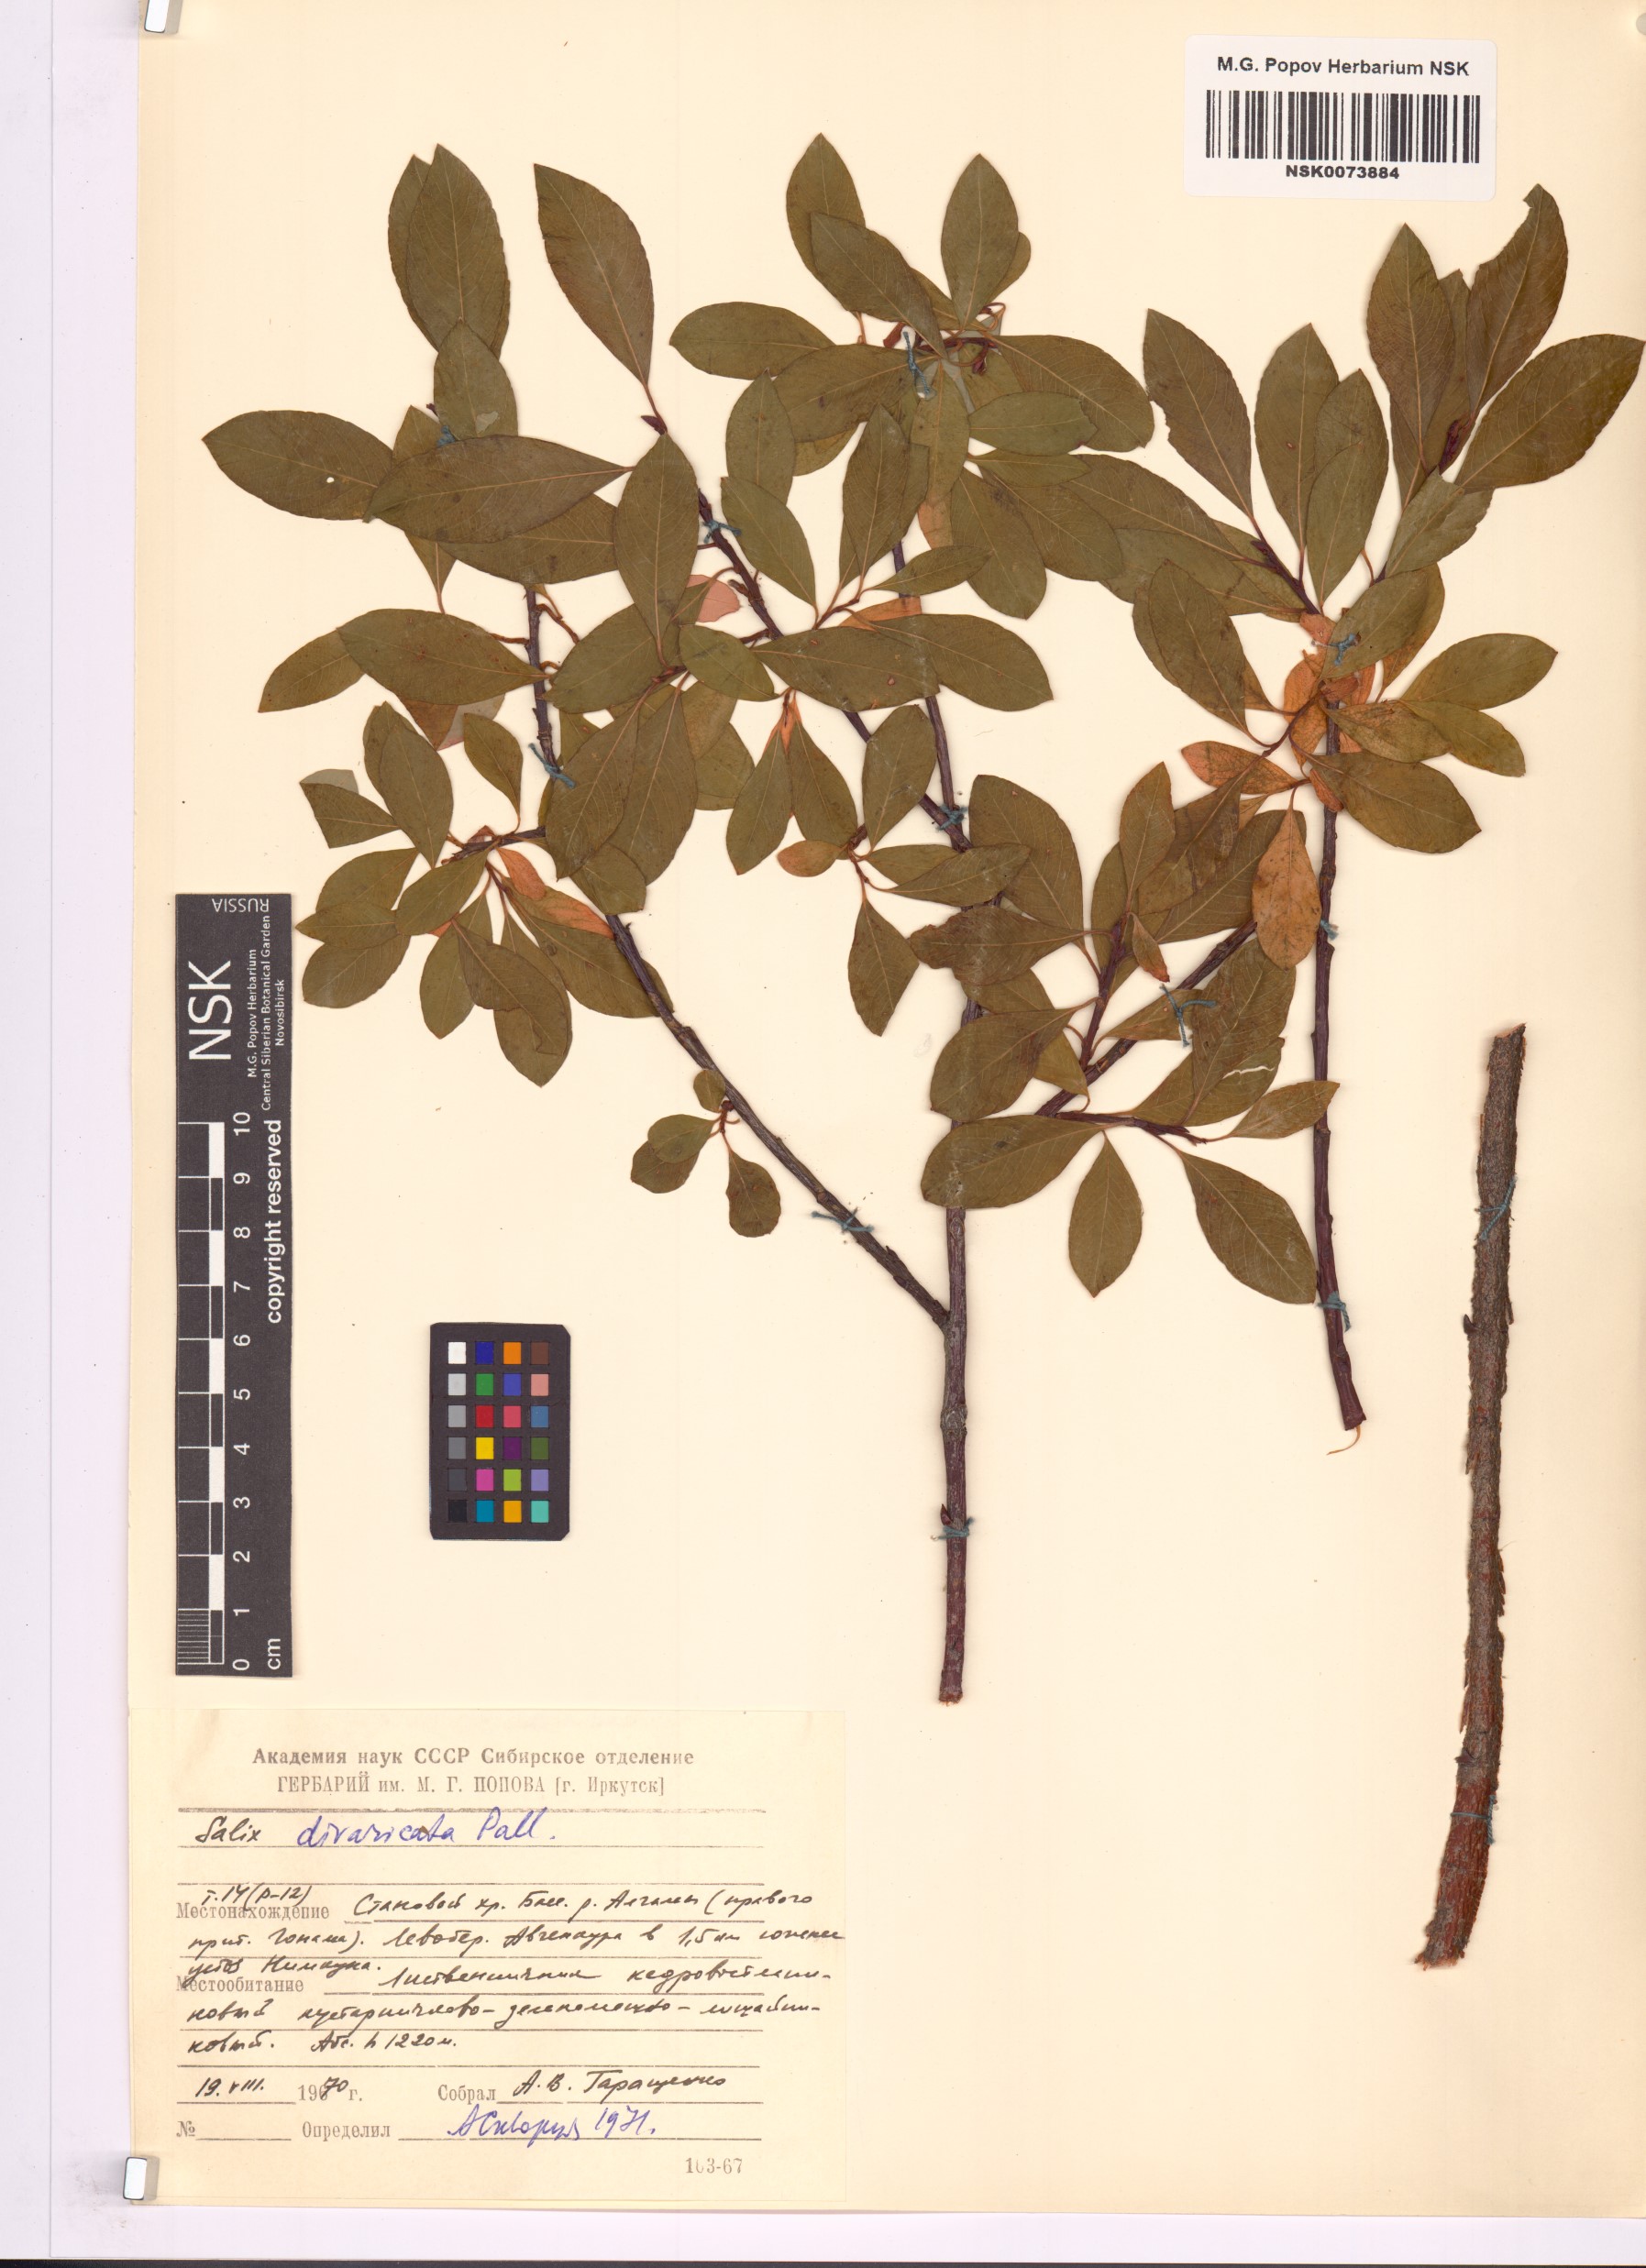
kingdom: Plantae
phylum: Tracheophyta
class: Magnoliopsida
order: Malpighiales
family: Salicaceae
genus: Salix
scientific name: Salix divaricata
